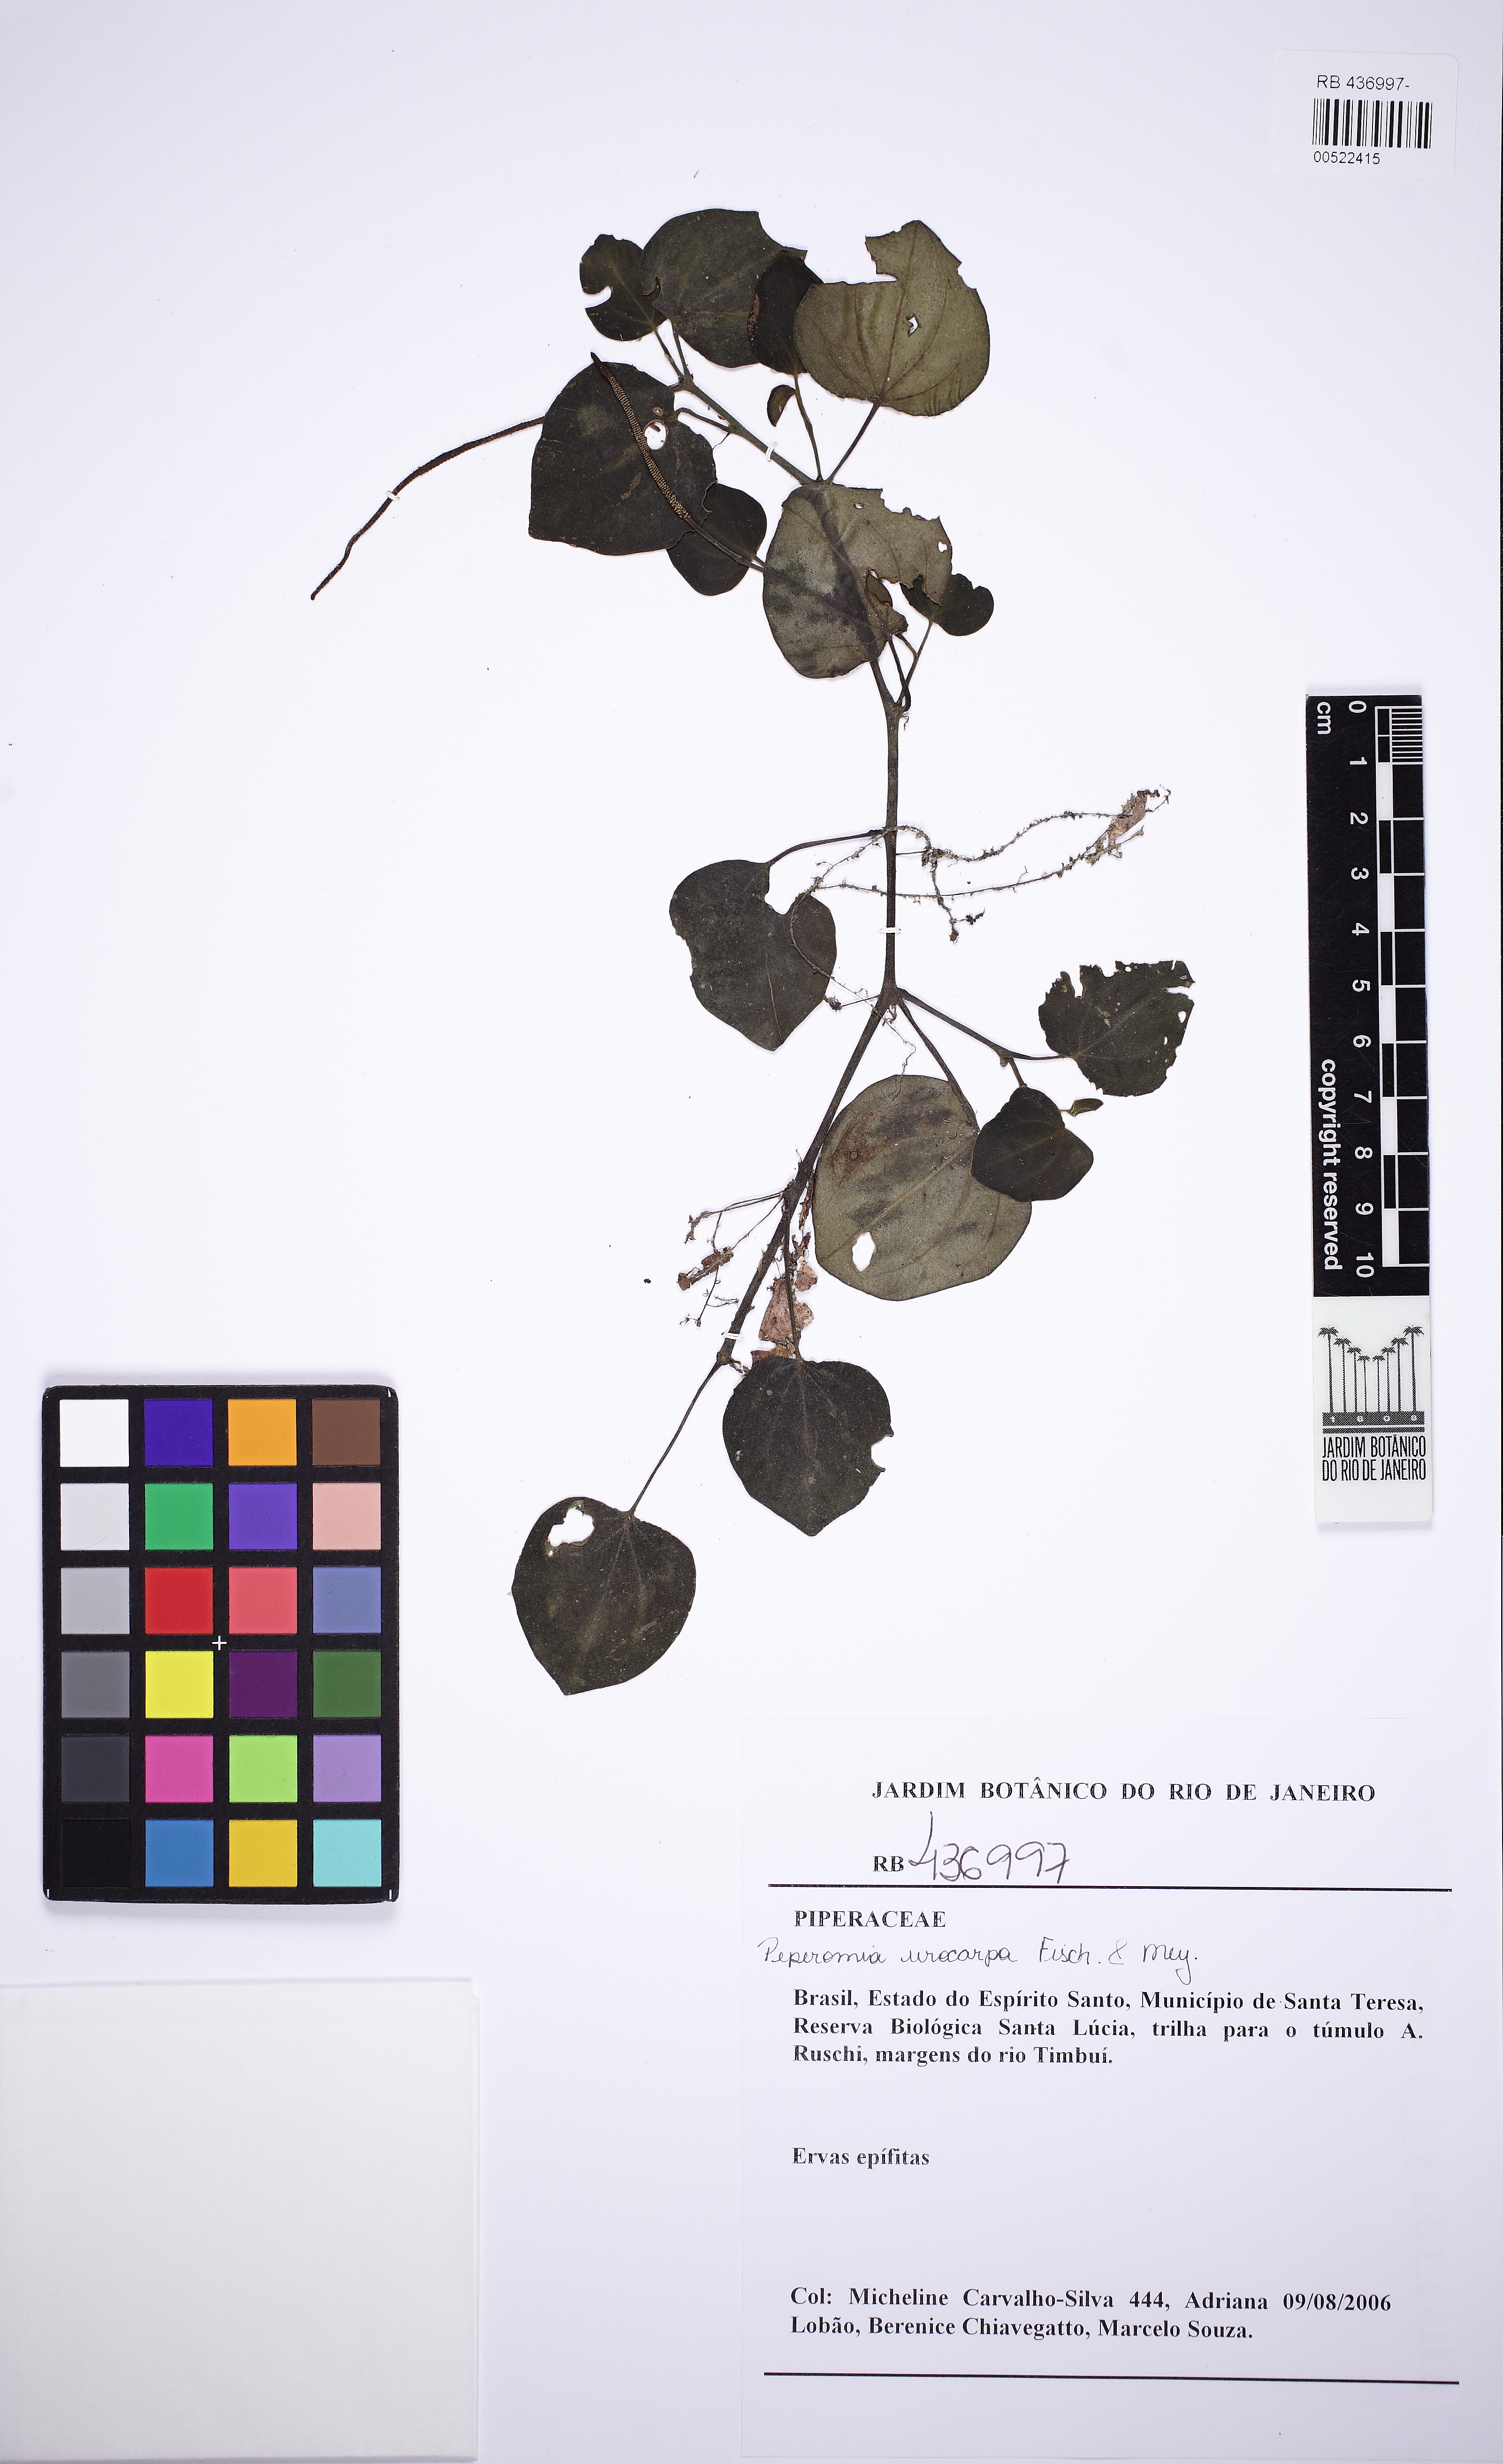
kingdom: Plantae
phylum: Tracheophyta
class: Magnoliopsida
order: Piperales
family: Piperaceae
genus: Peperomia
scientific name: Peperomia urocarpa
